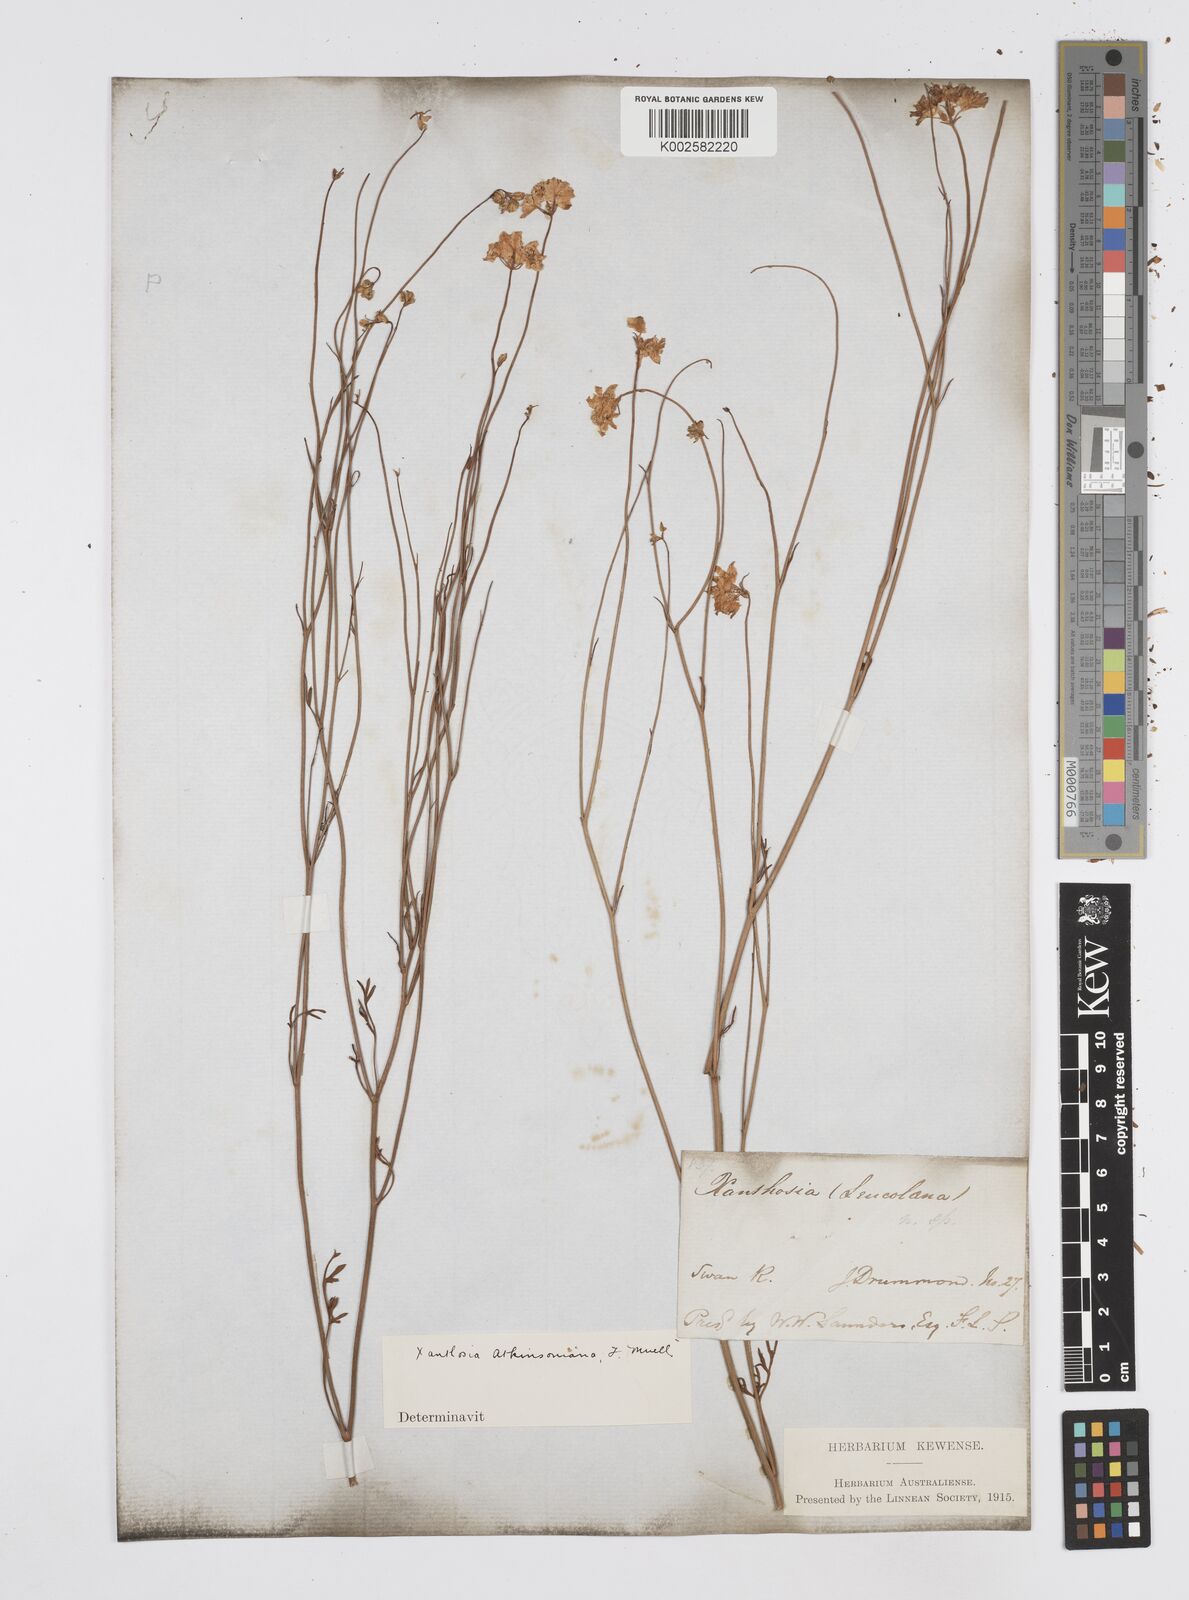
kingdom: Plantae
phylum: Tracheophyta
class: Magnoliopsida
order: Apiales
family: Apiaceae
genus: Xanthosia
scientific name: Xanthosia atkinsoniana
